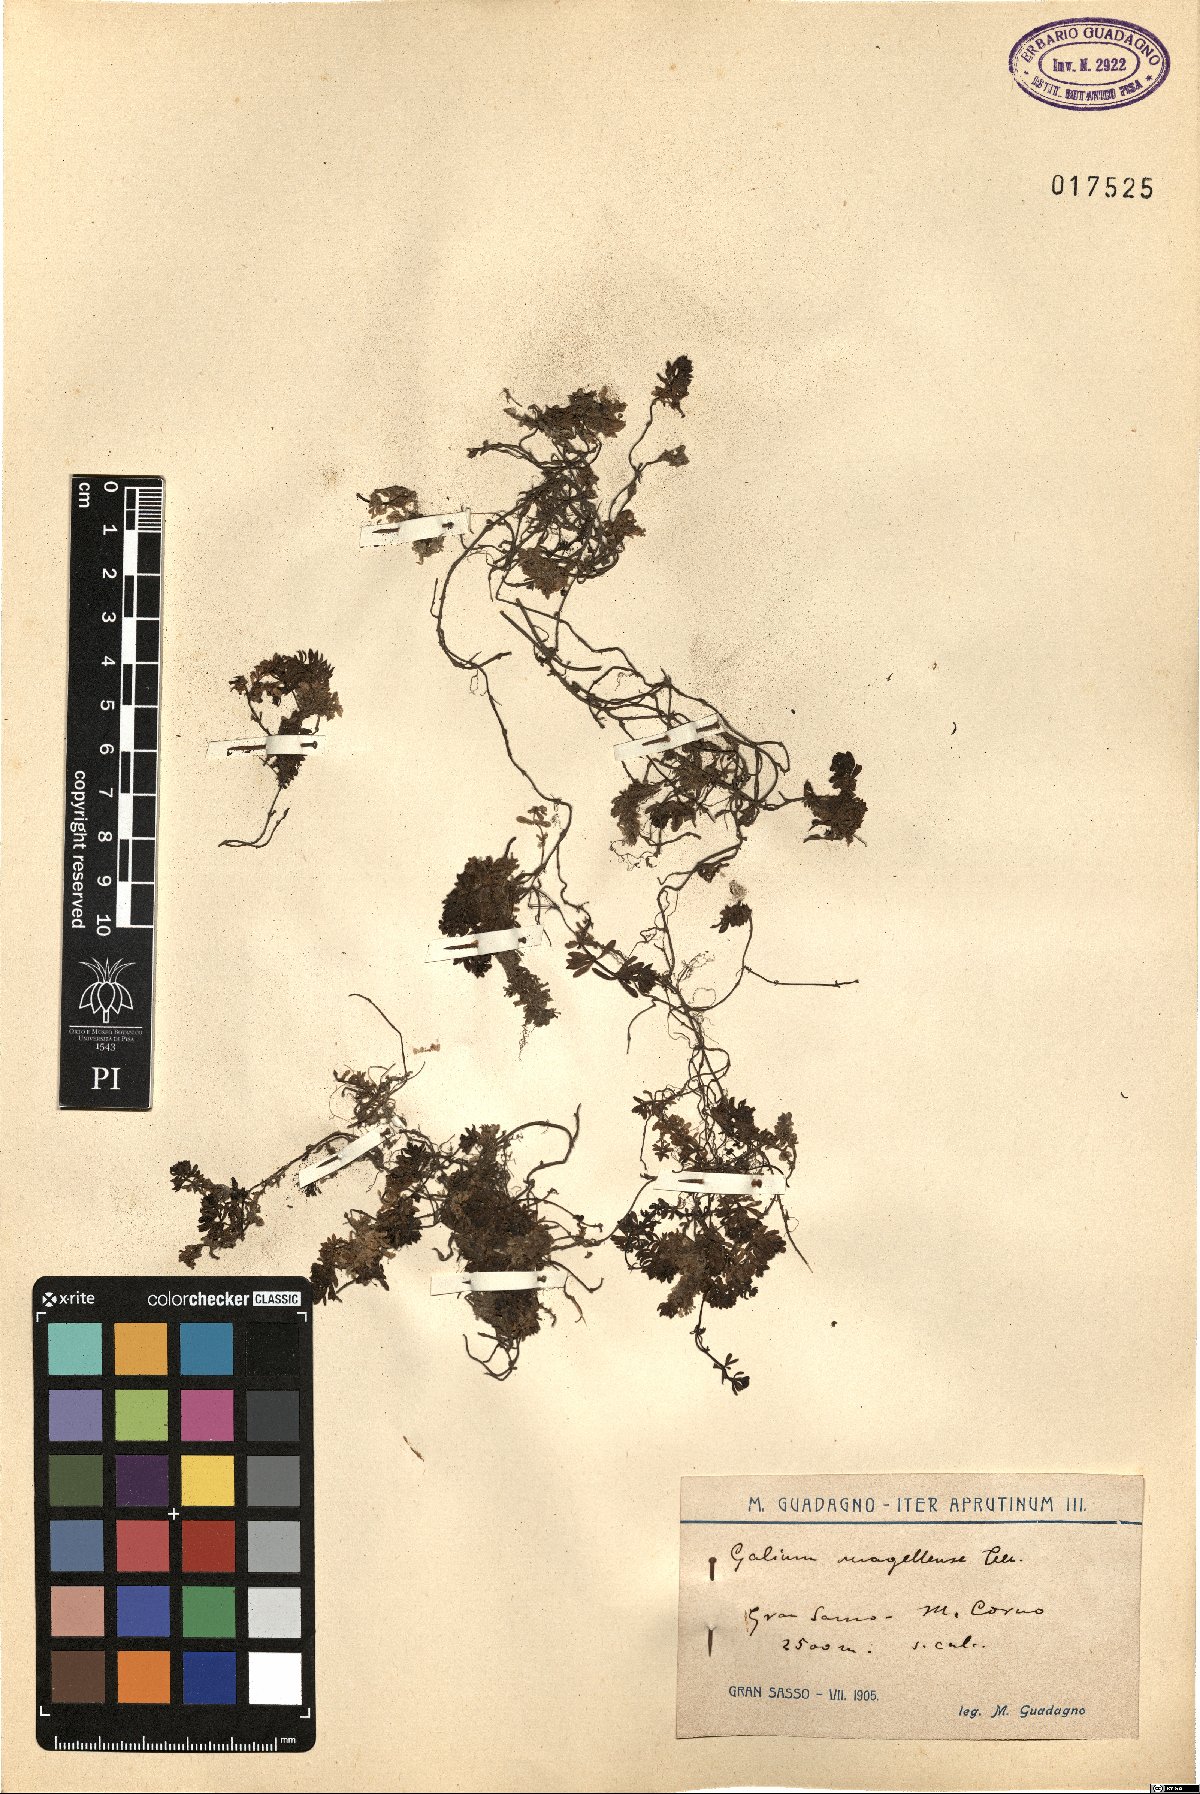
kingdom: Plantae
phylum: Tracheophyta
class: Magnoliopsida
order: Gentianales
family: Rubiaceae
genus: Galium
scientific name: Galium magellense
